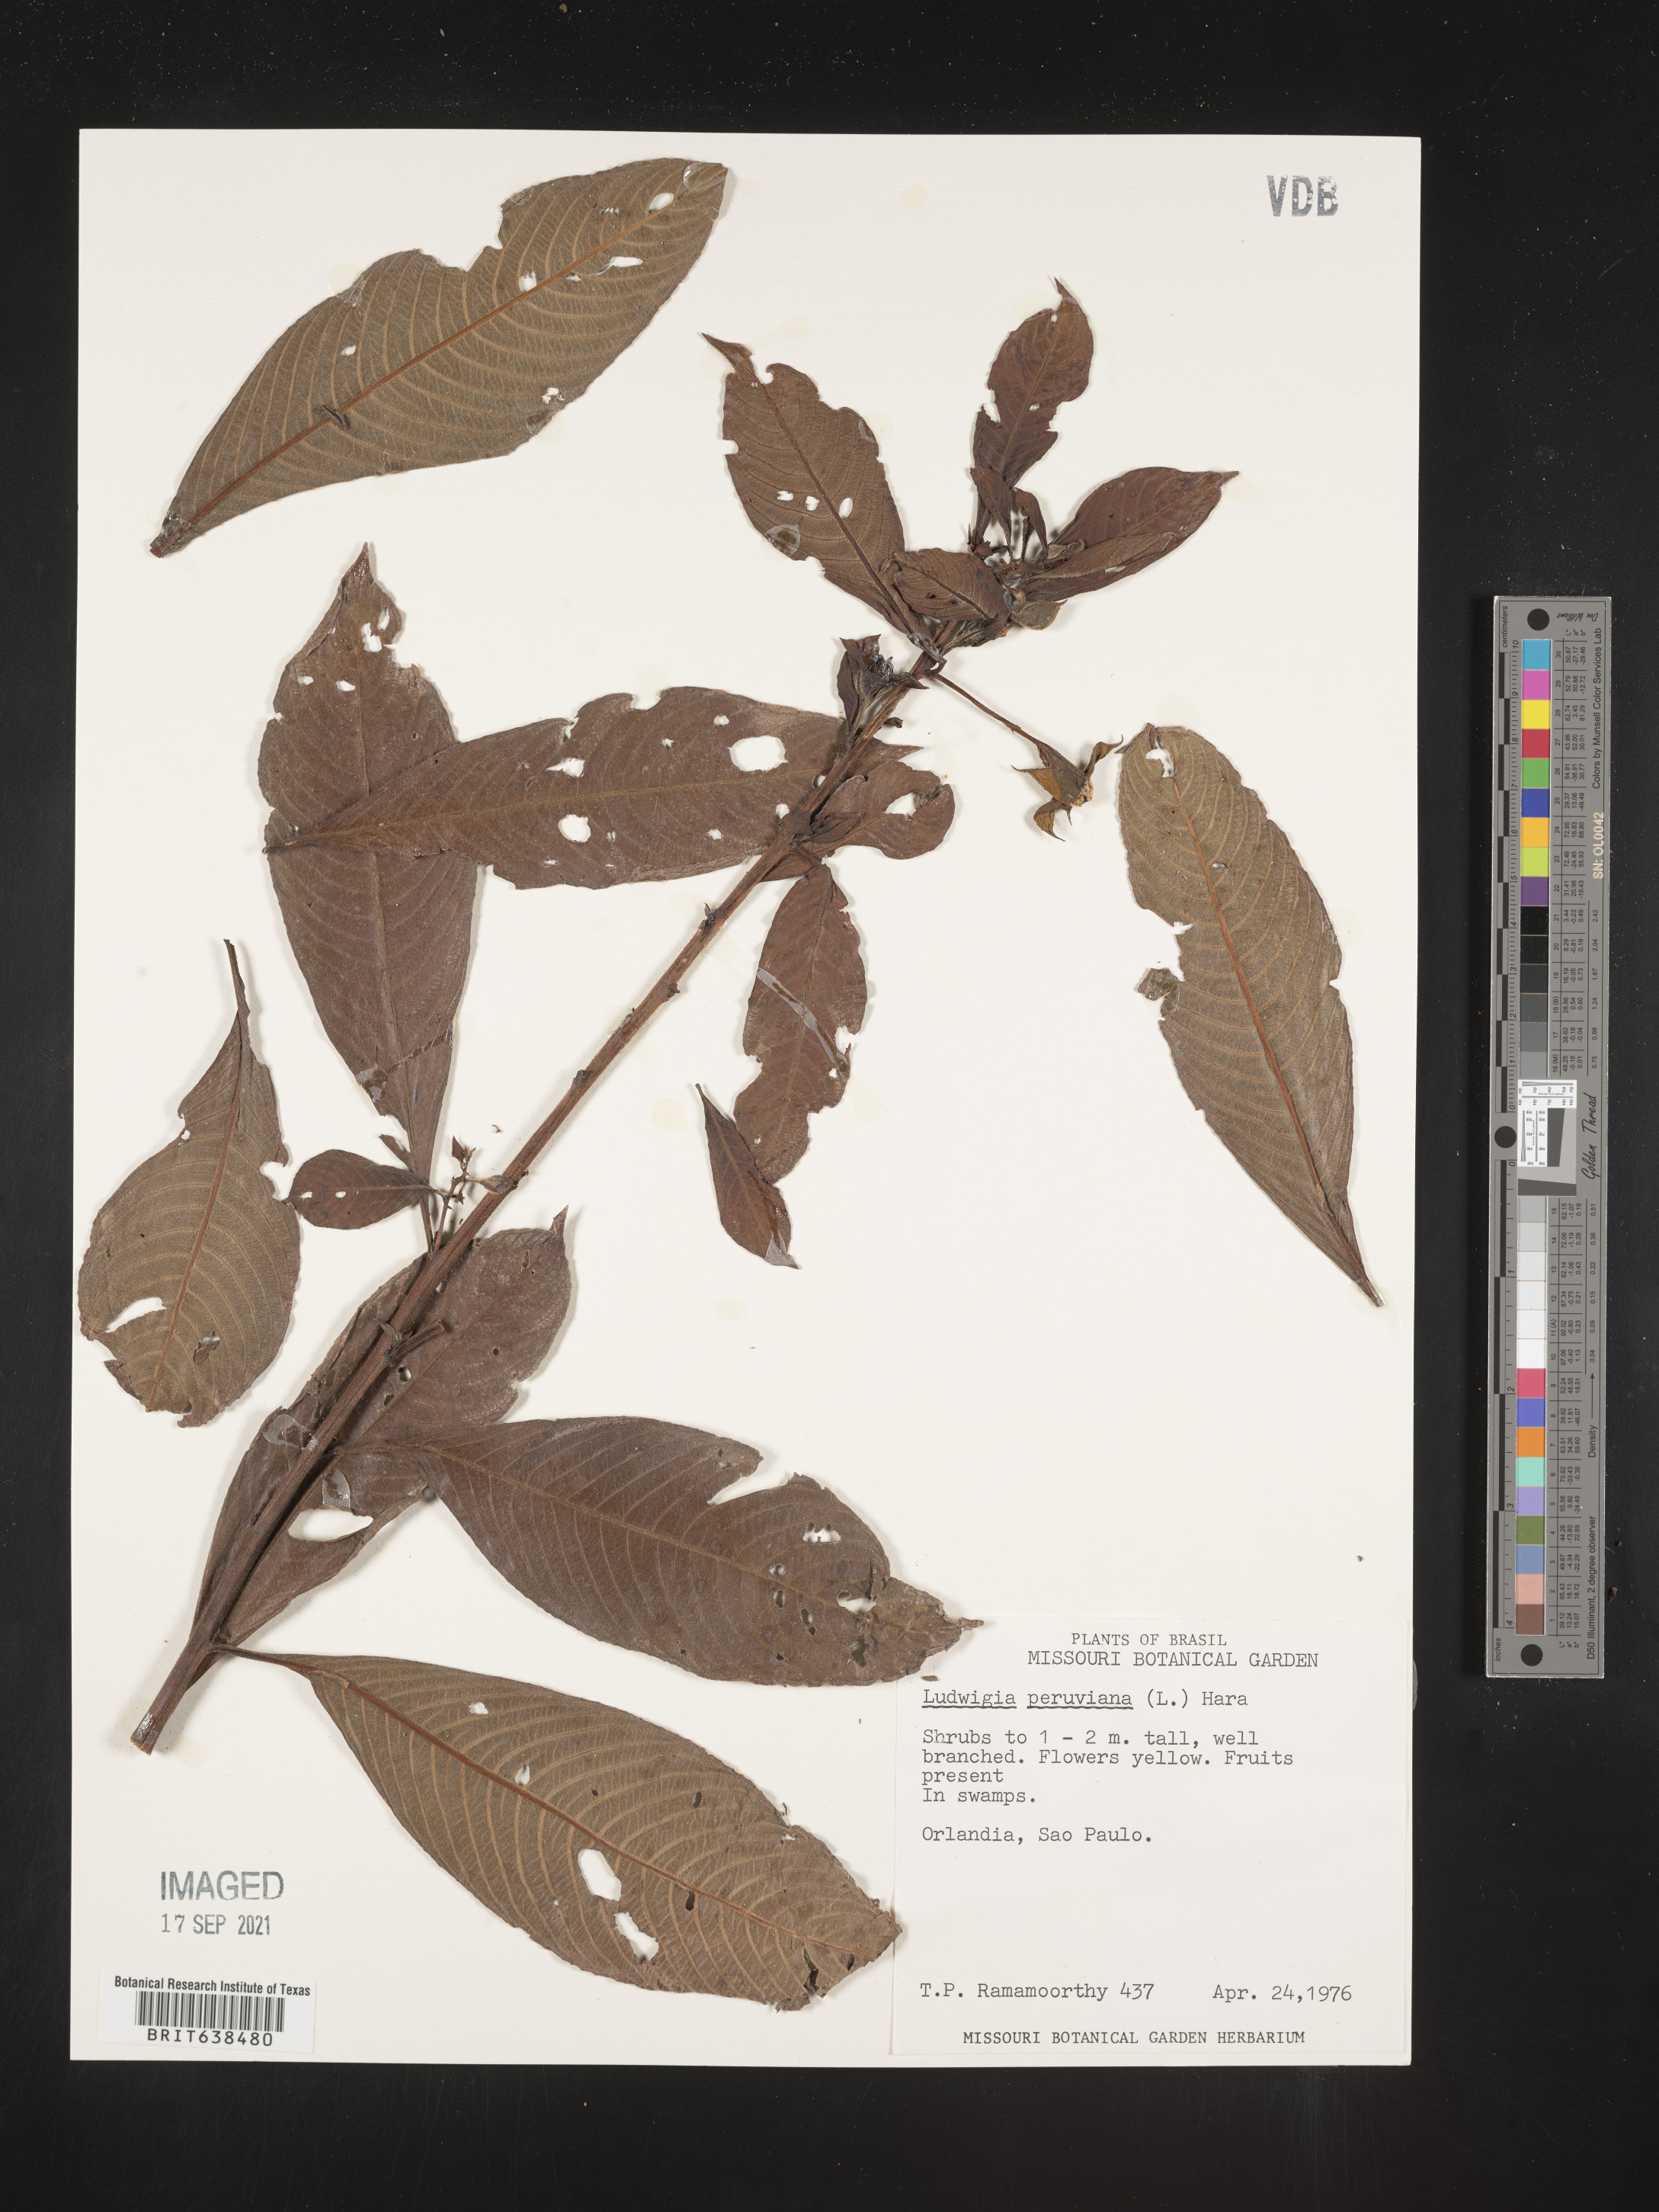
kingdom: Plantae
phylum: Tracheophyta
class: Magnoliopsida
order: Myrtales
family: Onagraceae
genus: Ludwigia
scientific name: Ludwigia
